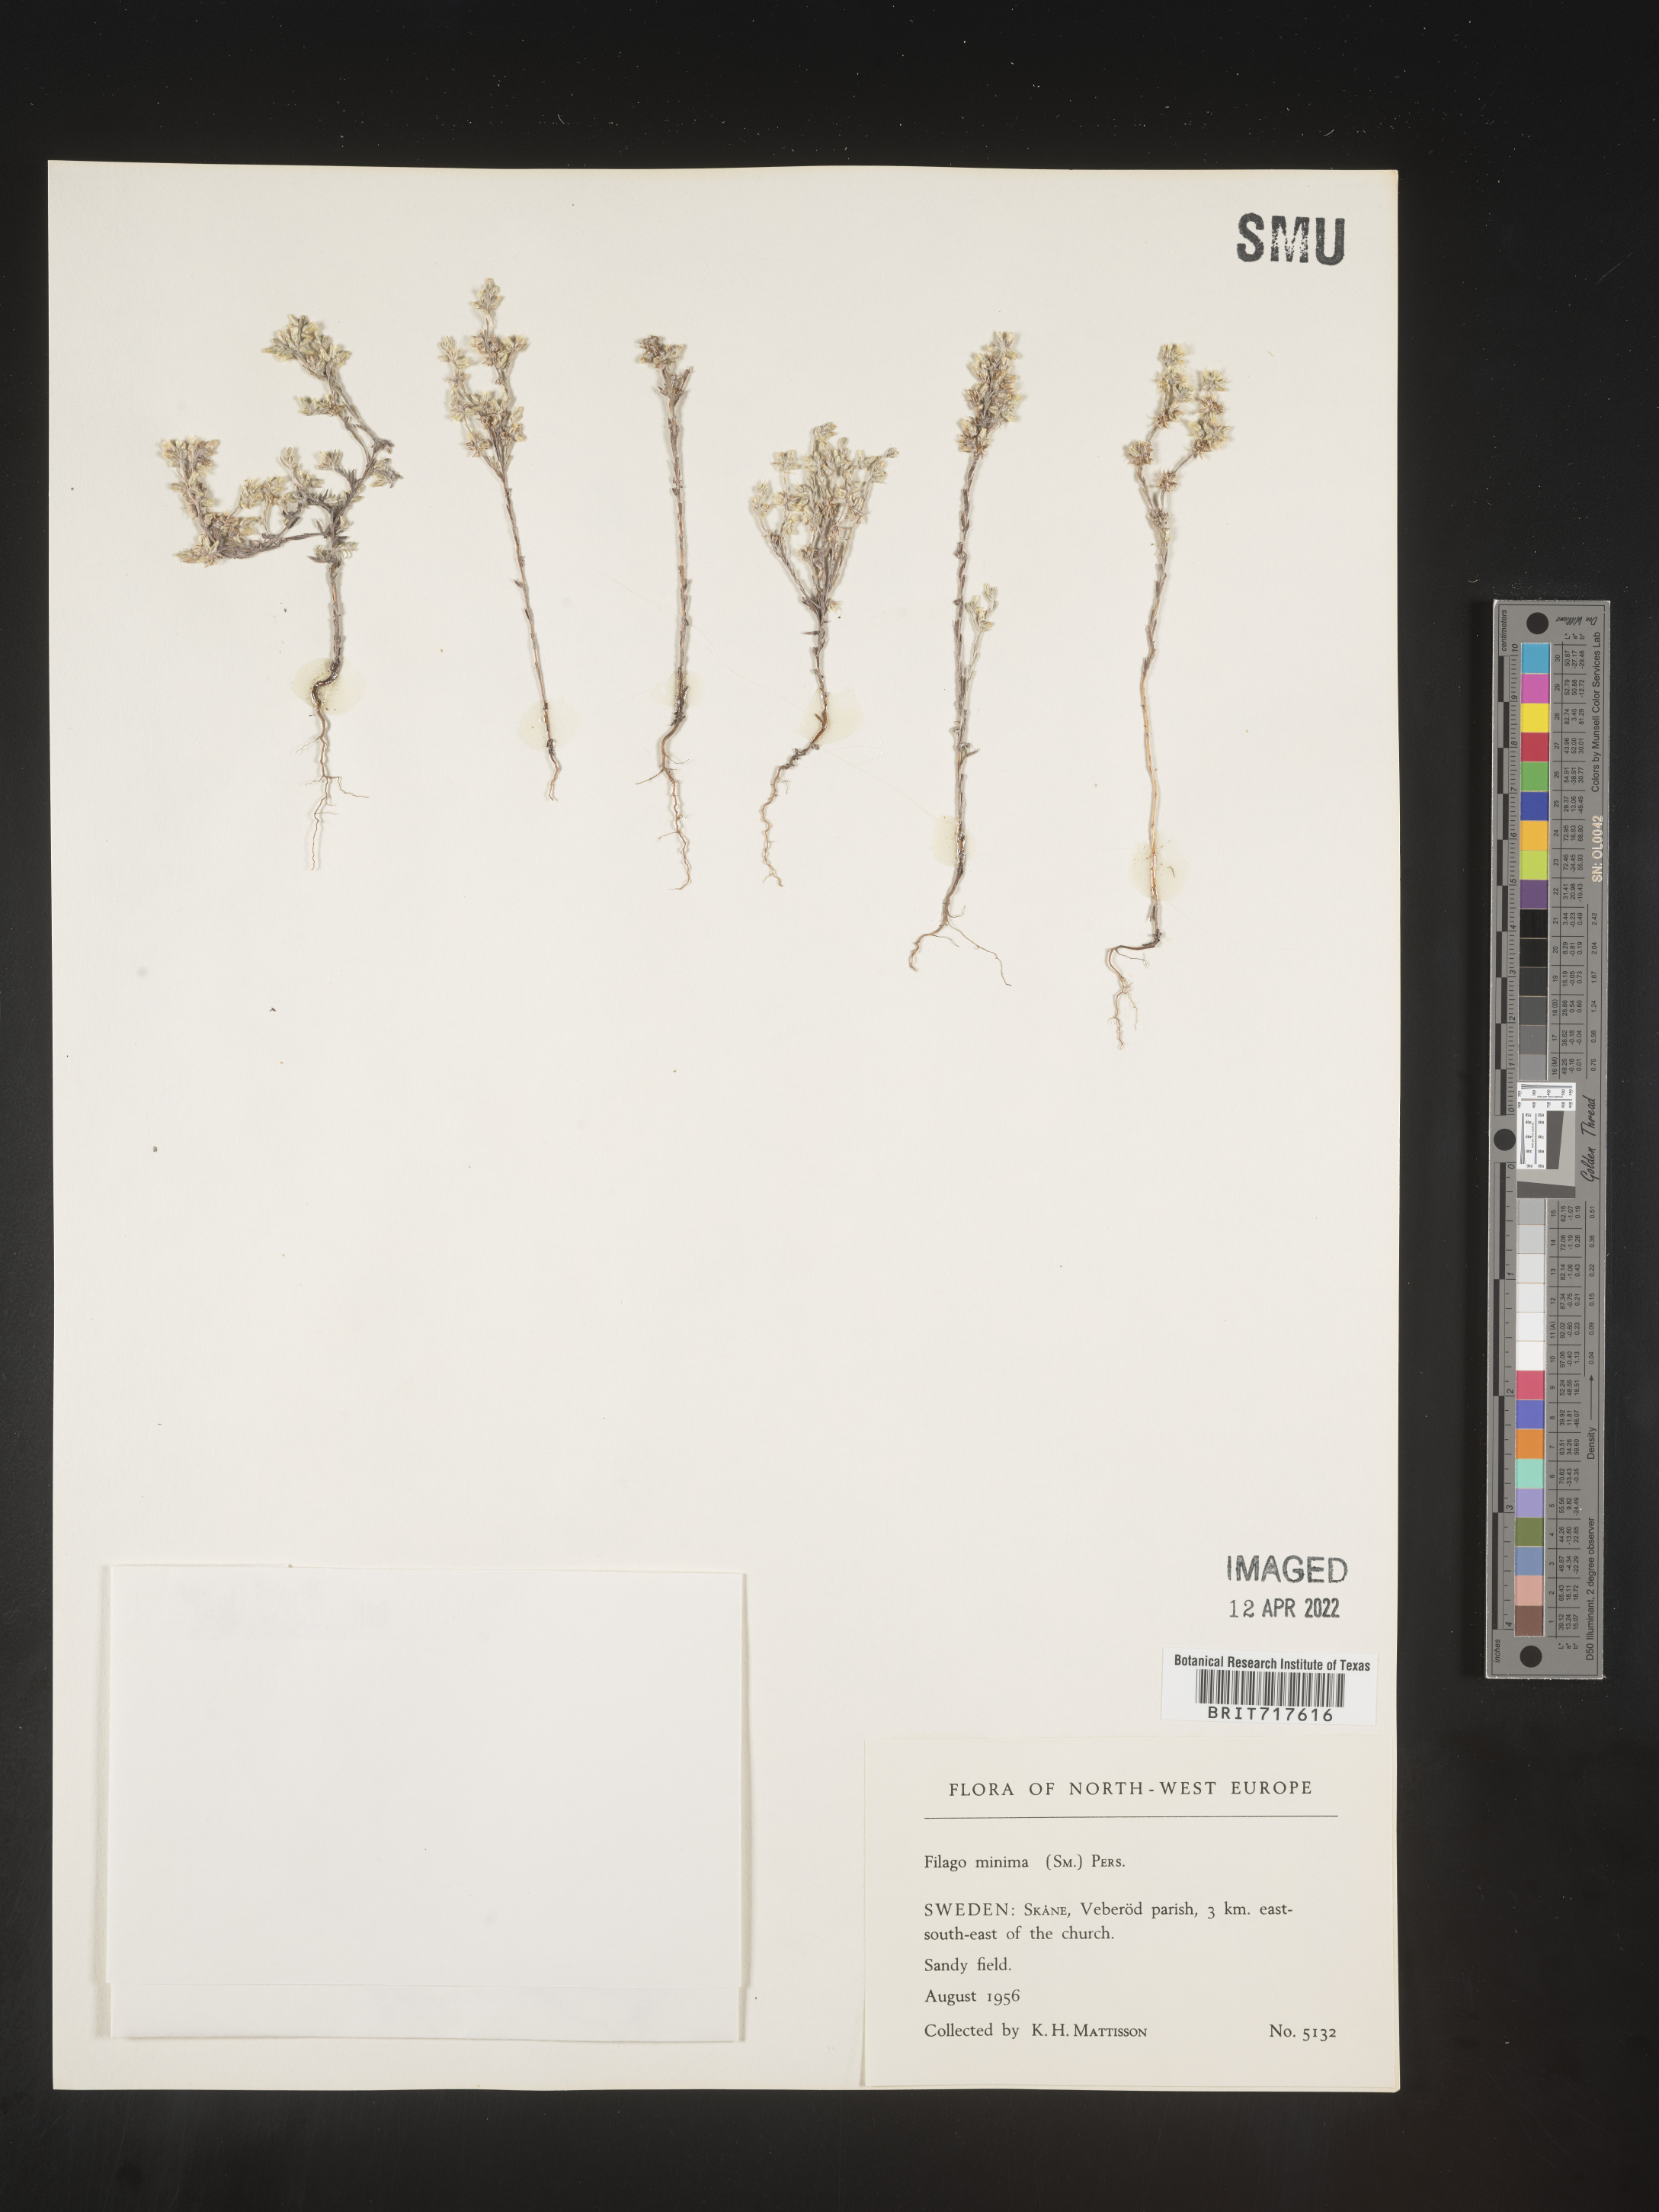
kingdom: Plantae
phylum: Tracheophyta
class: Magnoliopsida
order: Asterales
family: Asteraceae
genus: Filago
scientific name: Filago
